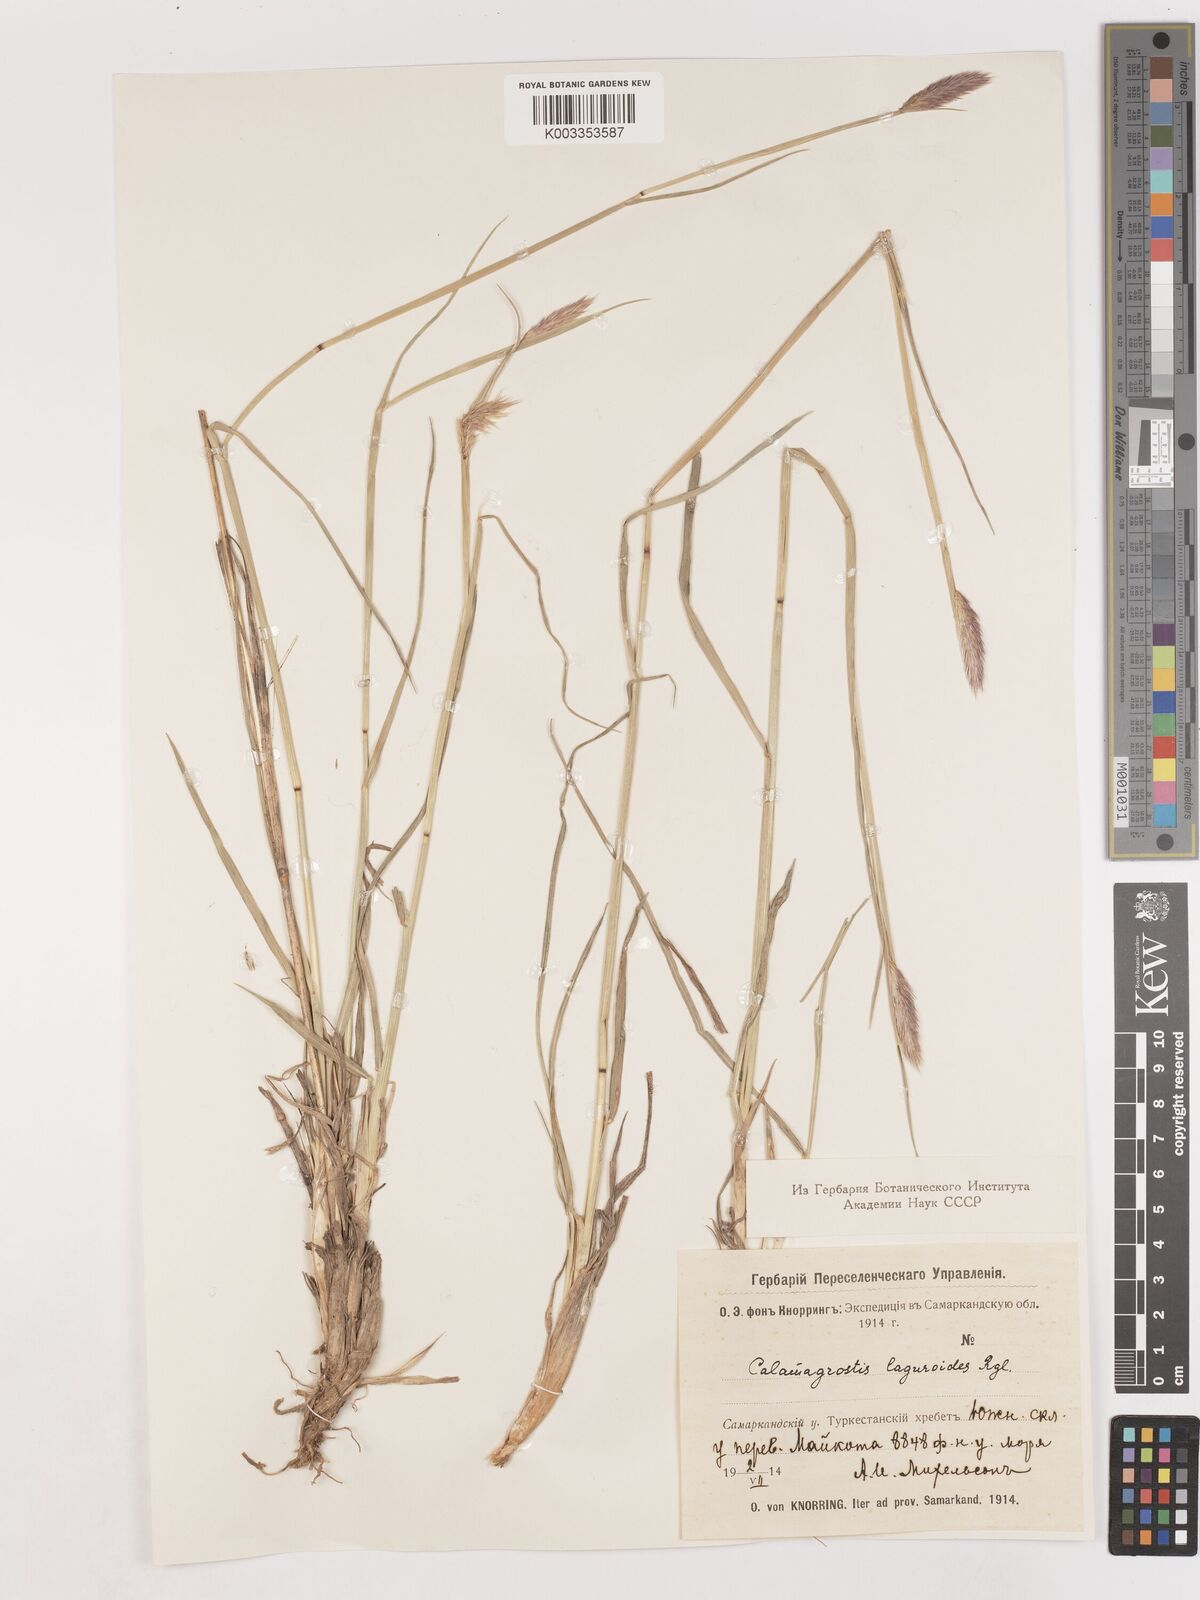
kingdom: Plantae
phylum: Tracheophyta
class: Liliopsida
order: Poales
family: Poaceae
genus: Calamagrostis
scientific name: Calamagrostis anthoxanthoides
